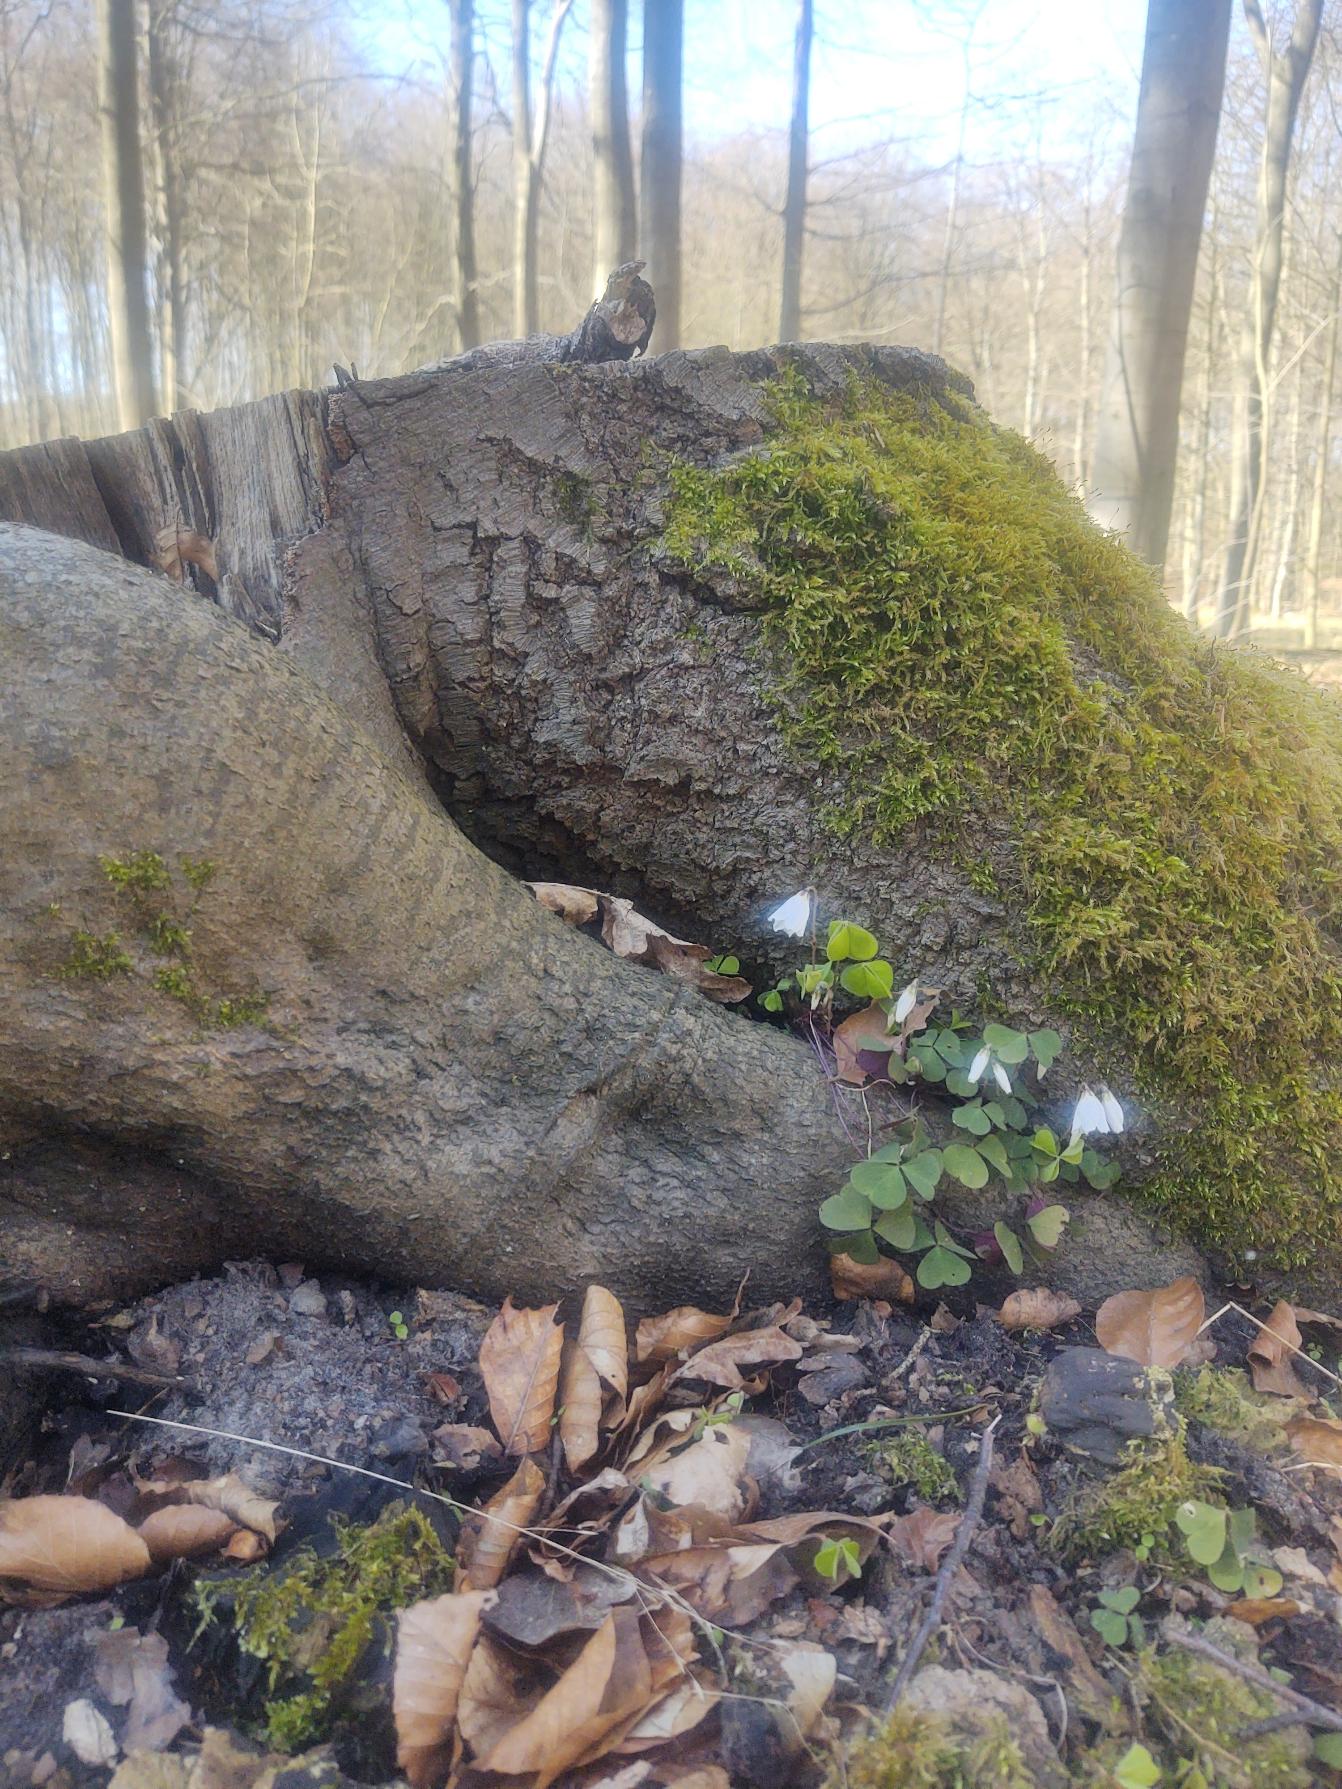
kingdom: Plantae
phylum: Tracheophyta
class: Magnoliopsida
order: Oxalidales
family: Oxalidaceae
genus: Oxalis
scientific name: Oxalis acetosella
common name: Skovsyre
